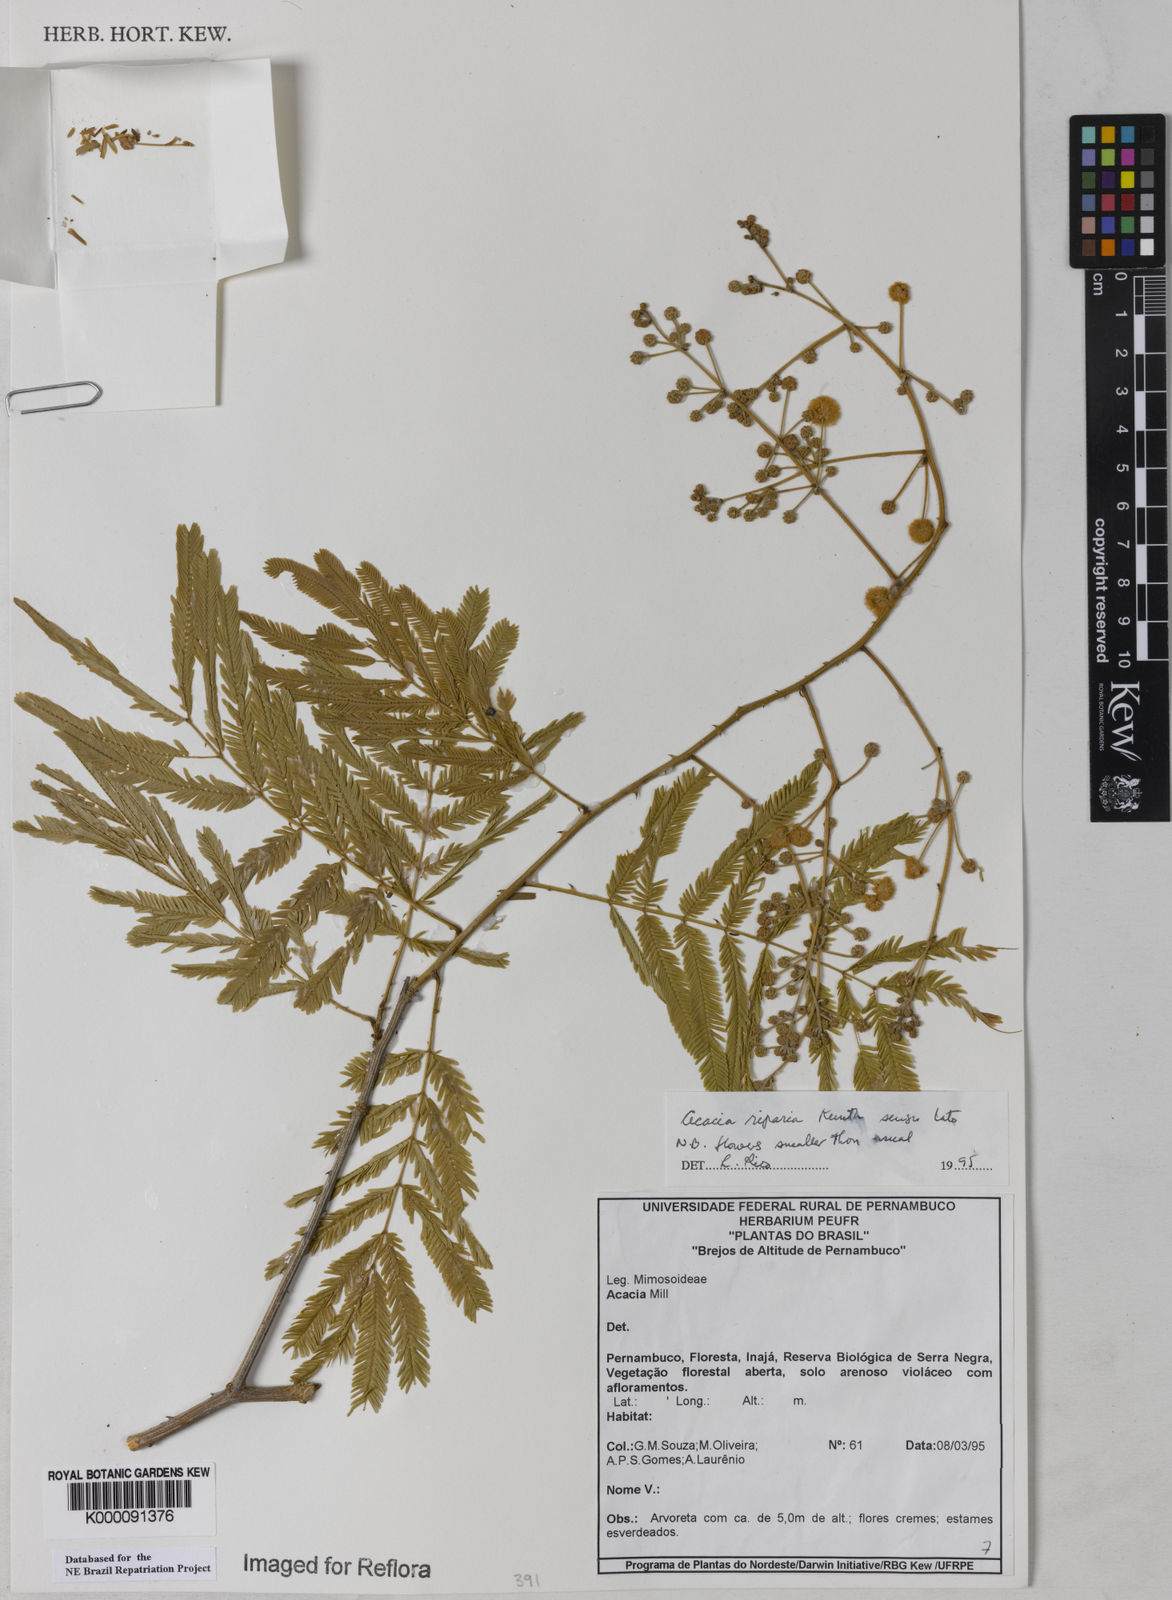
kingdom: Plantae
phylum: Tracheophyta
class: Magnoliopsida
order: Fabales
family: Fabaceae
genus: Senegalia
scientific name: Senegalia riparia
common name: Catch-and-keep
